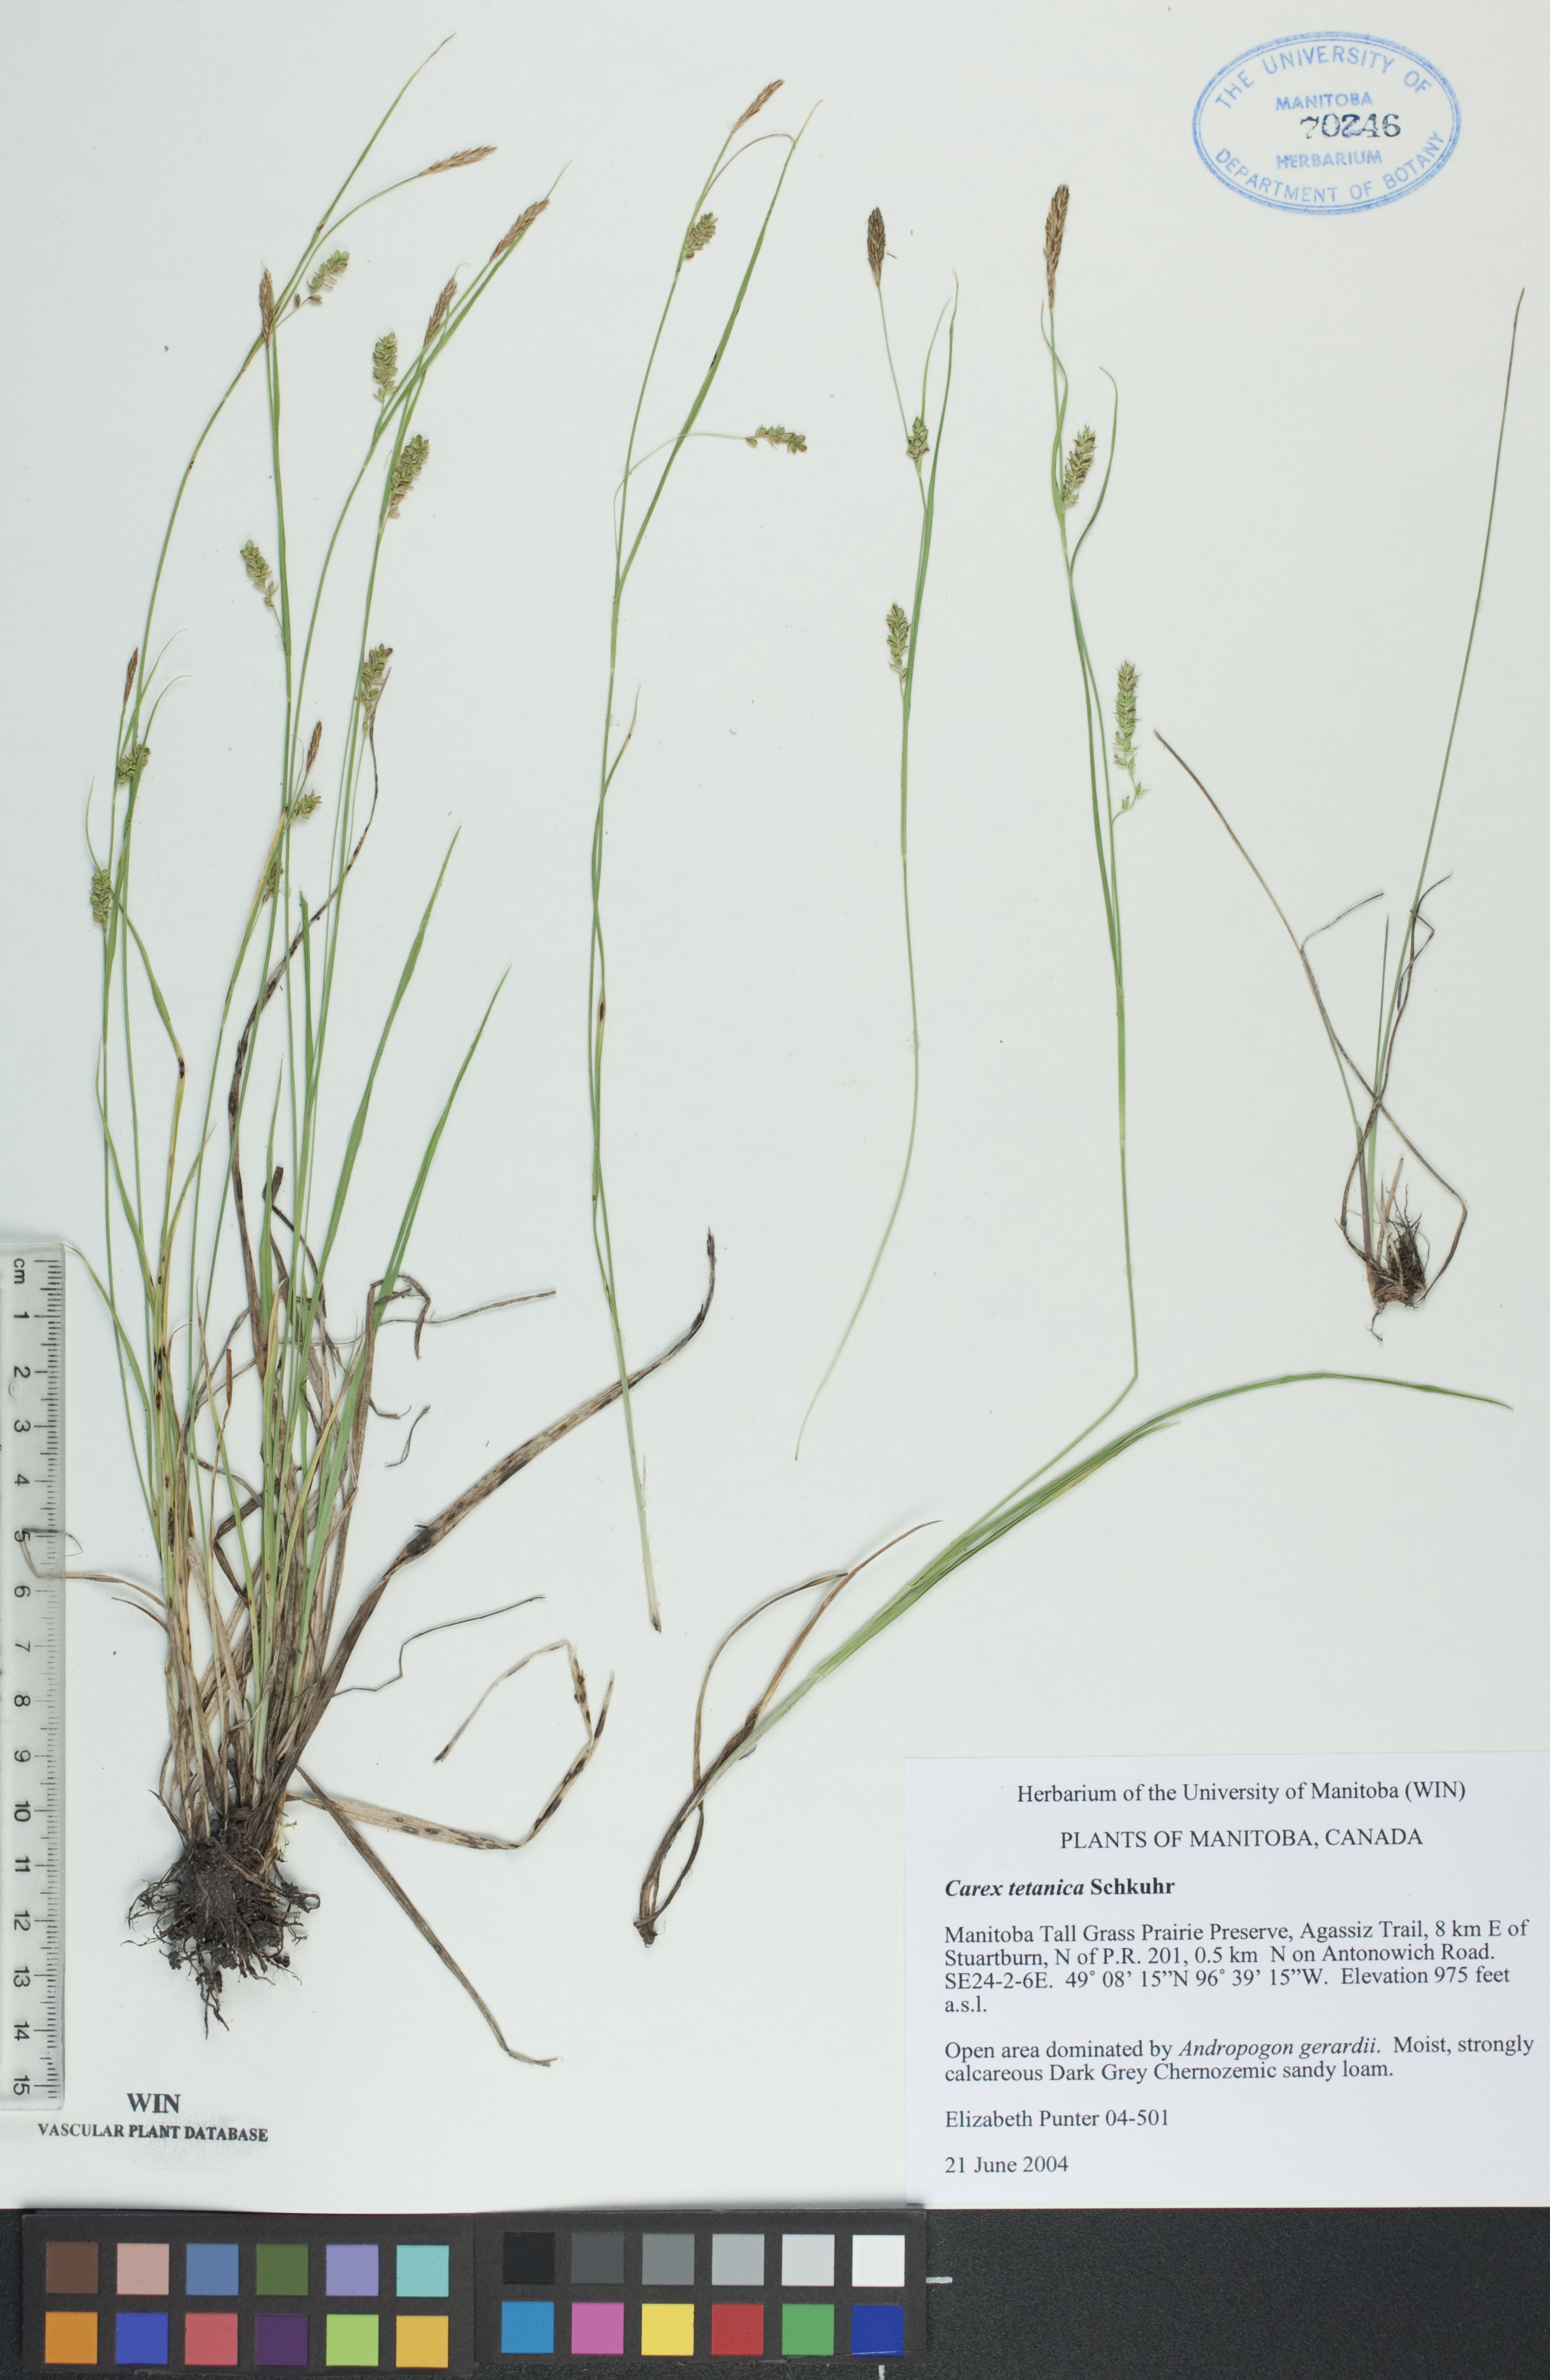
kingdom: Plantae
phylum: Tracheophyta
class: Liliopsida
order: Poales
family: Cyperaceae
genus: Carex
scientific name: Carex tetanica
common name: Rigid sedge
